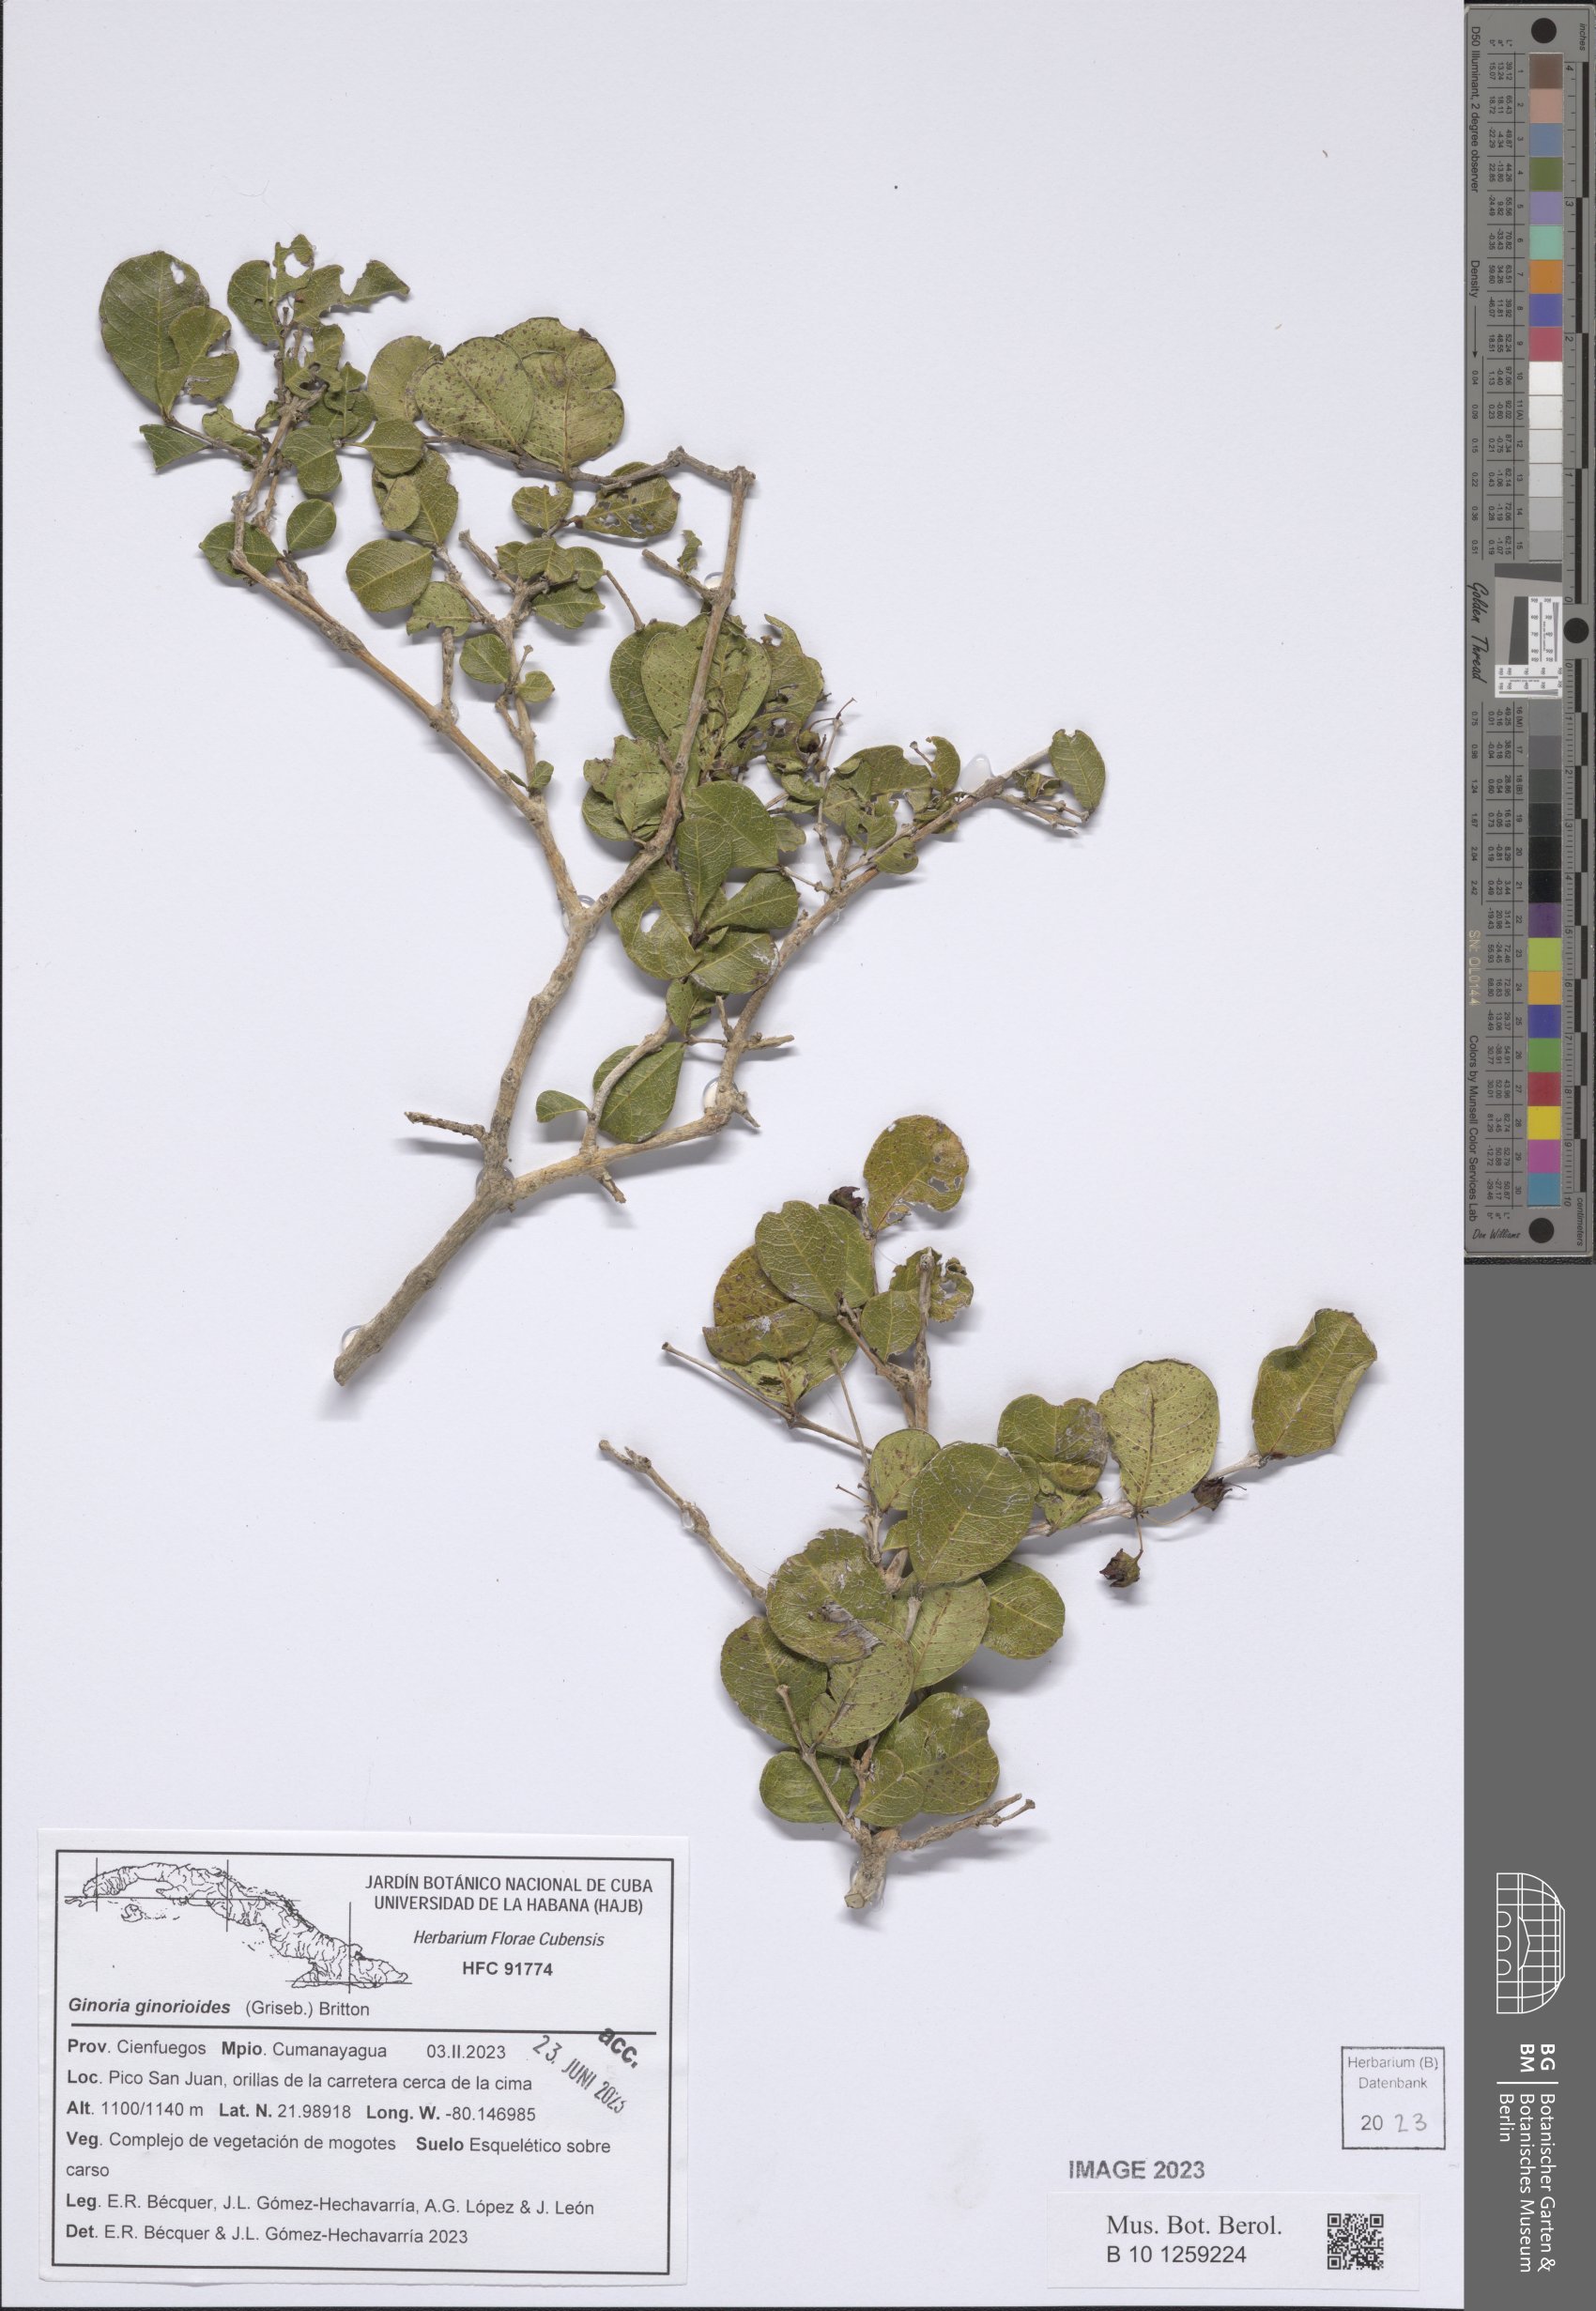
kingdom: Plantae
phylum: Tracheophyta
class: Magnoliopsida
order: Myrtales
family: Lythraceae
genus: Ginoria
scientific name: Ginoria ginorioides
